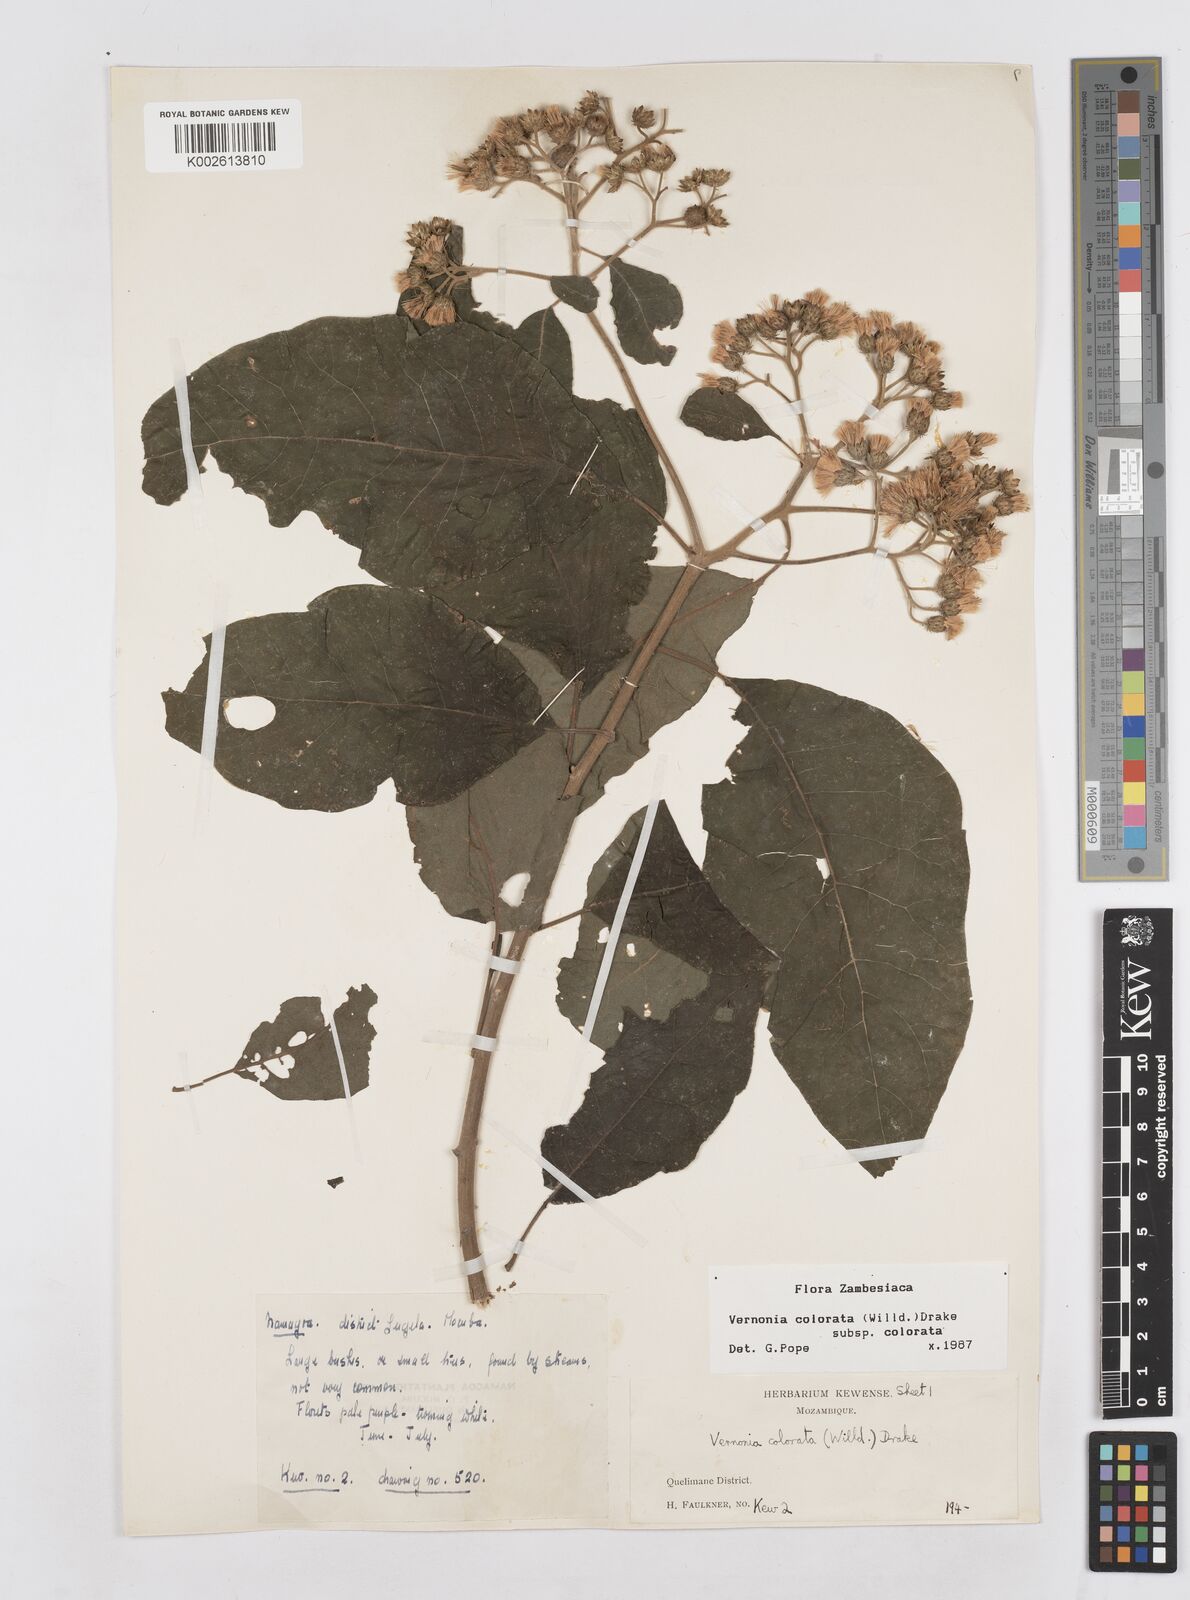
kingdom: Plantae
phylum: Tracheophyta
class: Magnoliopsida
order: Asterales
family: Asteraceae
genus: Vernonia
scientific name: Vernonia colorata
